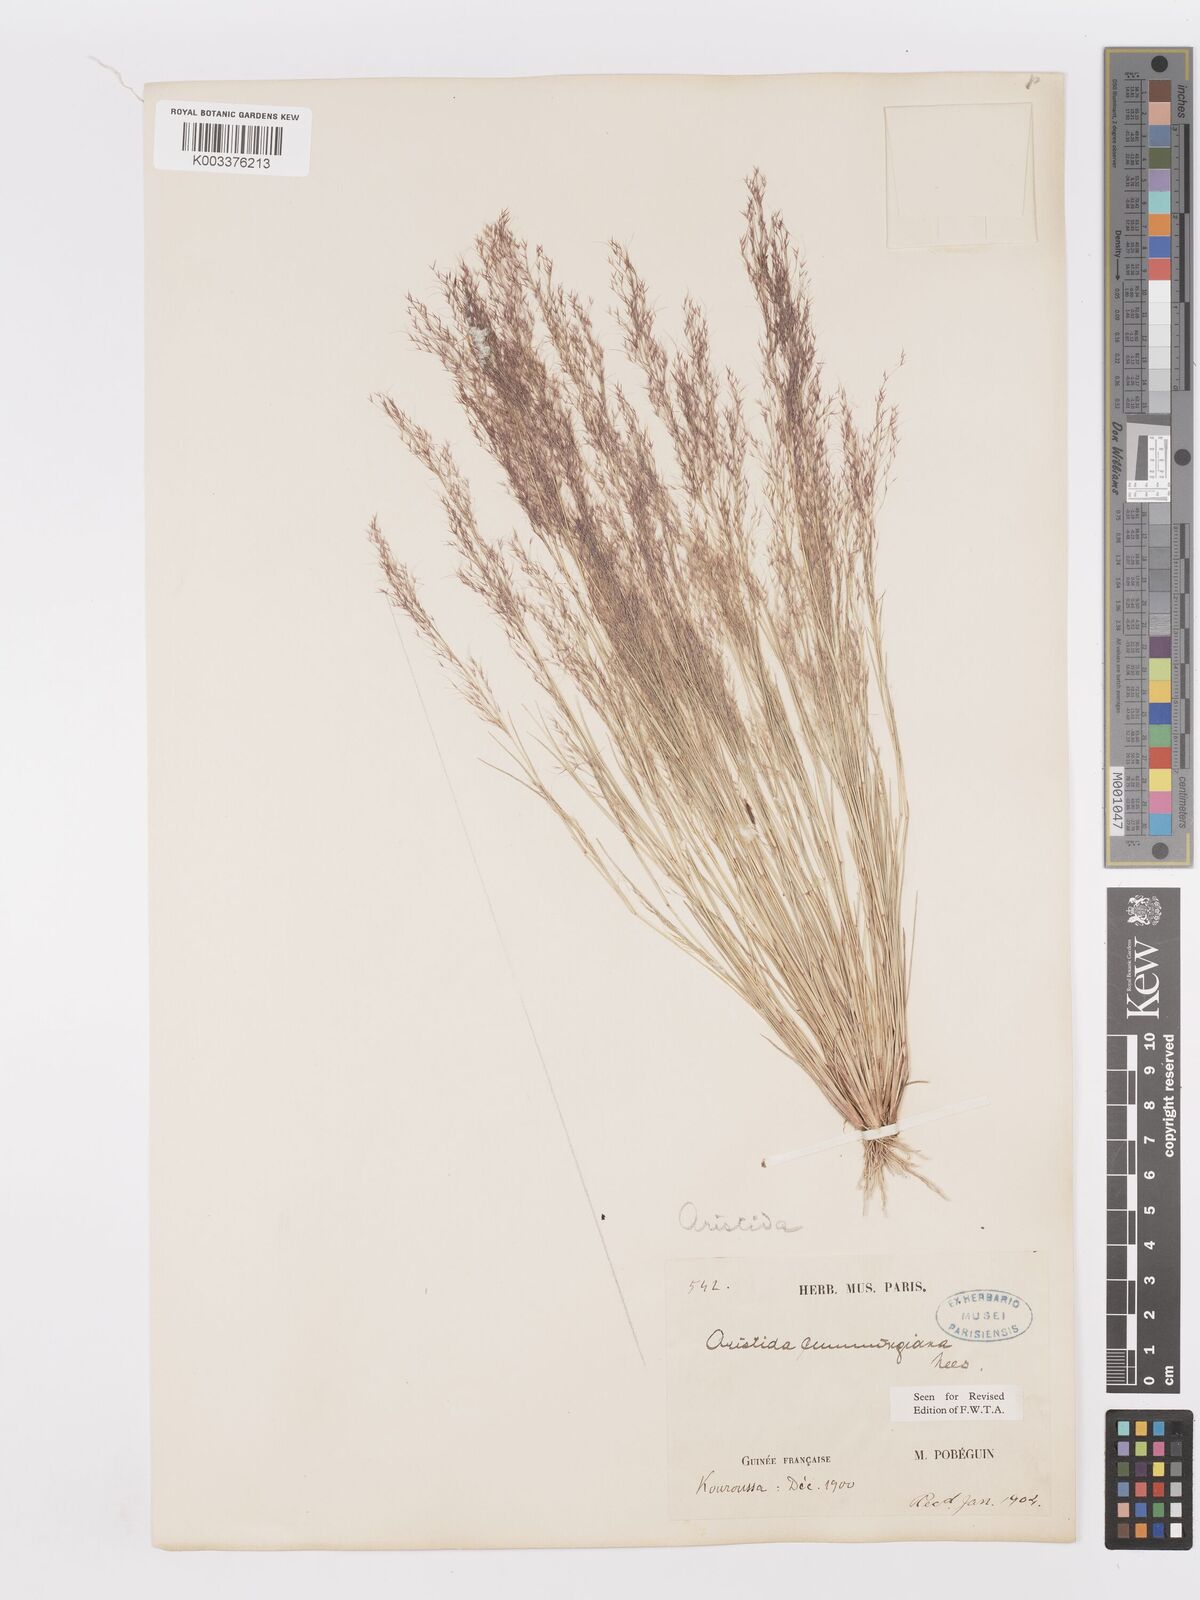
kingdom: Plantae
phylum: Tracheophyta
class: Liliopsida
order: Poales
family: Poaceae
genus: Aristida
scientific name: Aristida cumingiana
